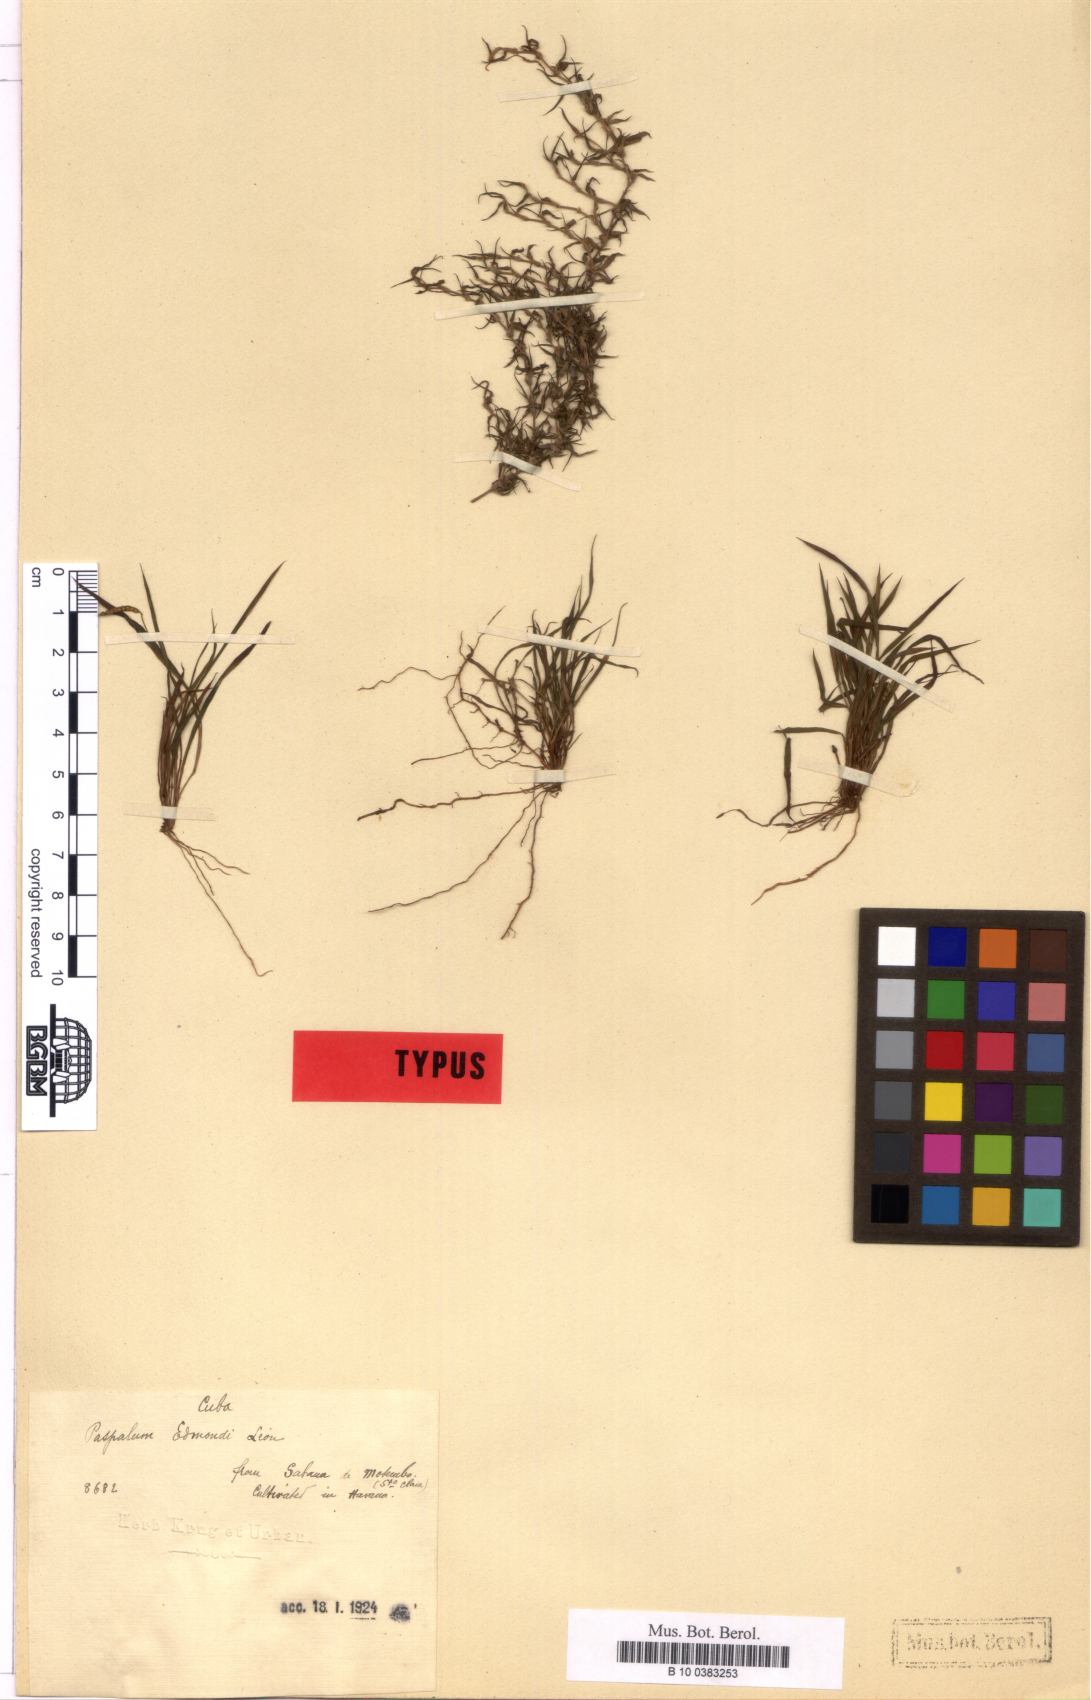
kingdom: Plantae
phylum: Tracheophyta
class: Liliopsida
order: Poales
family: Poaceae
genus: Paspalum
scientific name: Paspalum edmondii
